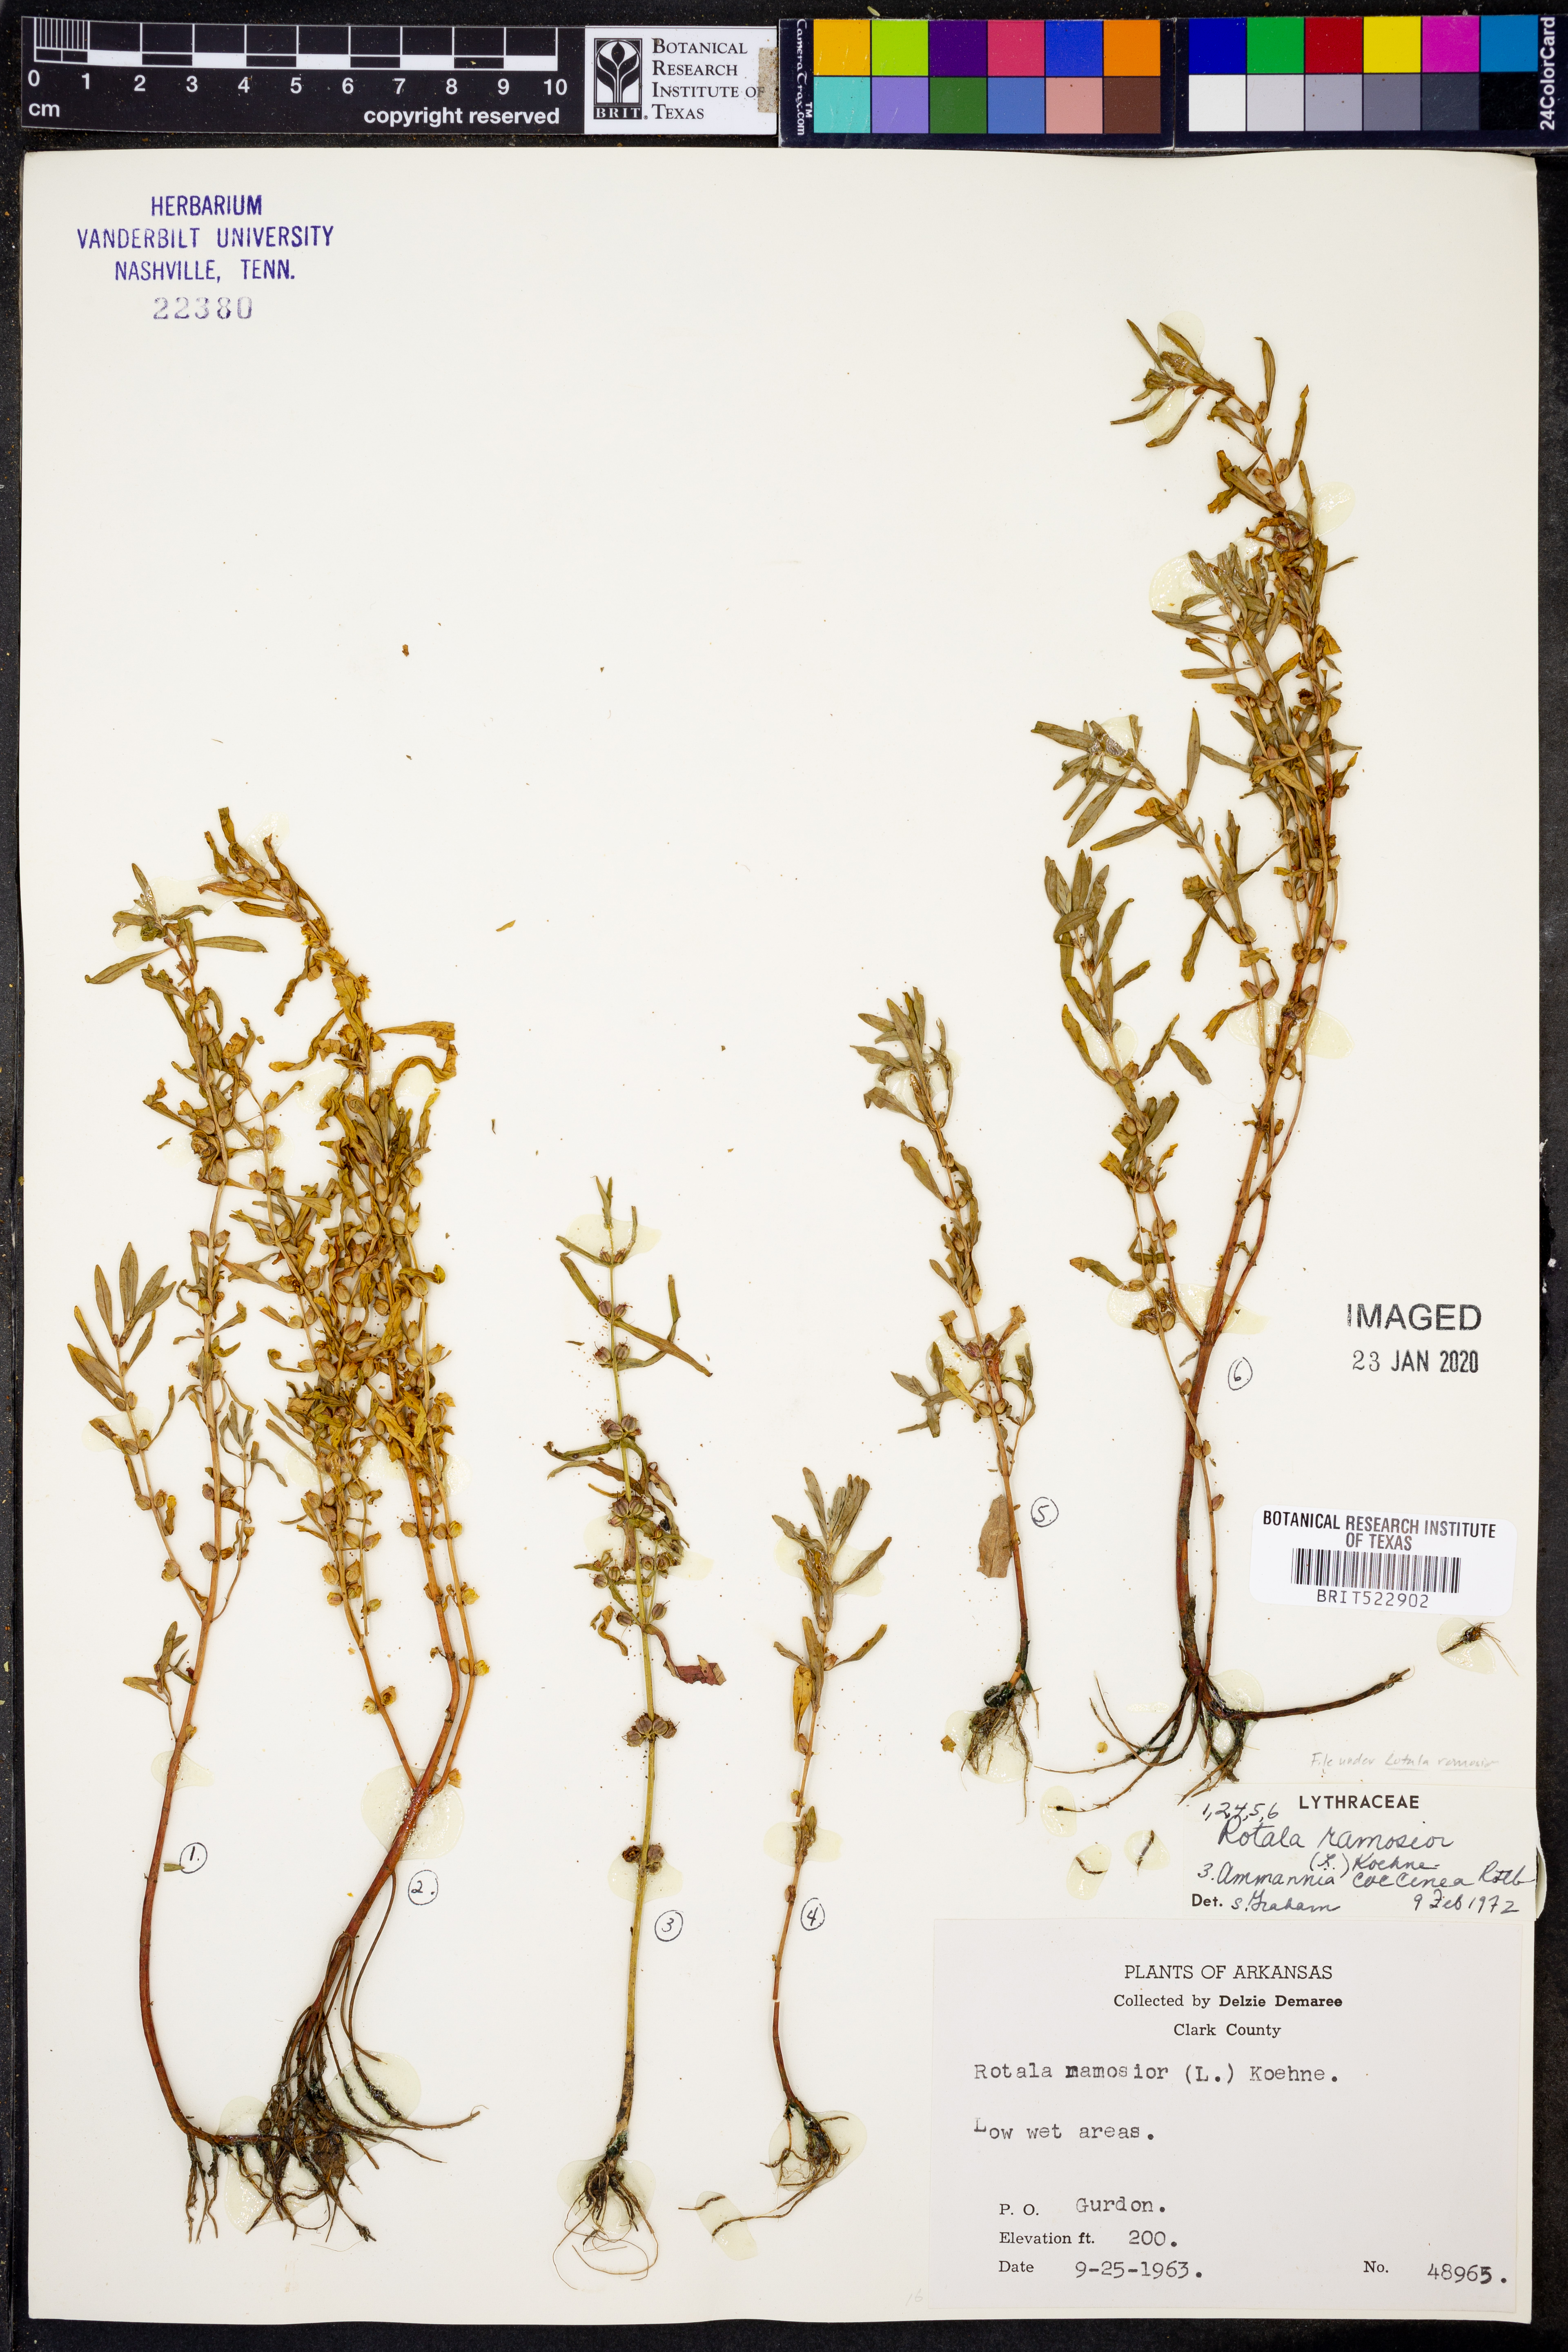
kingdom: Plantae
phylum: Tracheophyta
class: Magnoliopsida
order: Myrtales
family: Lythraceae
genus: Rotala
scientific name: Rotala ramosior
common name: Lowland rotala
